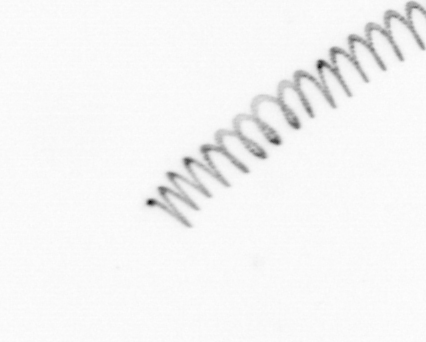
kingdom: Chromista
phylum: Ochrophyta
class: Bacillariophyceae
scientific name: Bacillariophyceae
